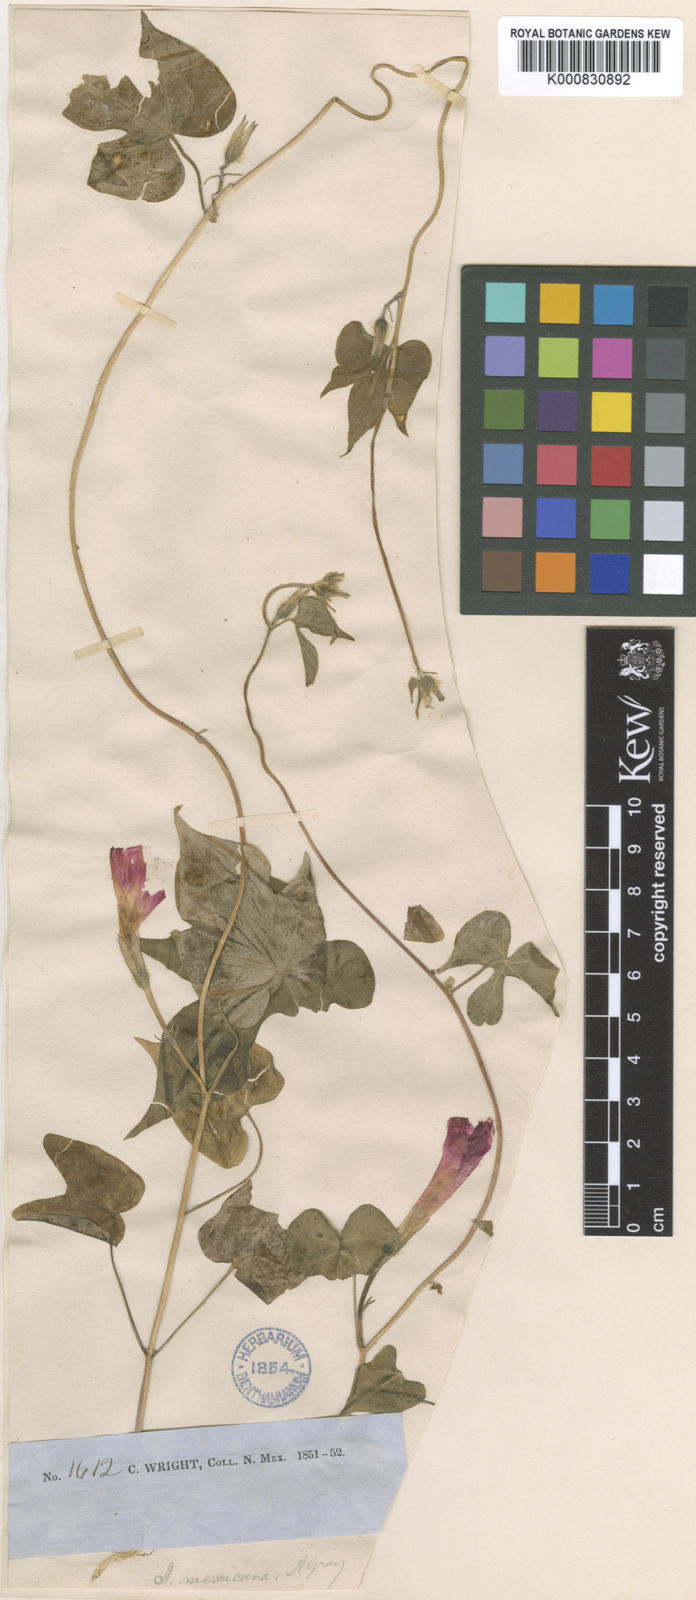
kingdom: Plantae
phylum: Tracheophyta
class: Magnoliopsida
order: Solanales
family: Convolvulaceae
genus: Ipomoea
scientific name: Ipomoea purpurea
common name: Common morning-glory
